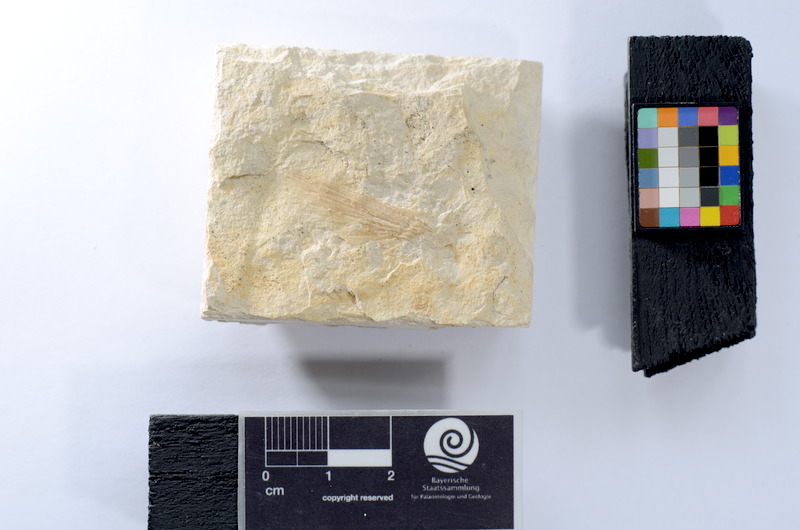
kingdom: Animalia
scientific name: Animalia
